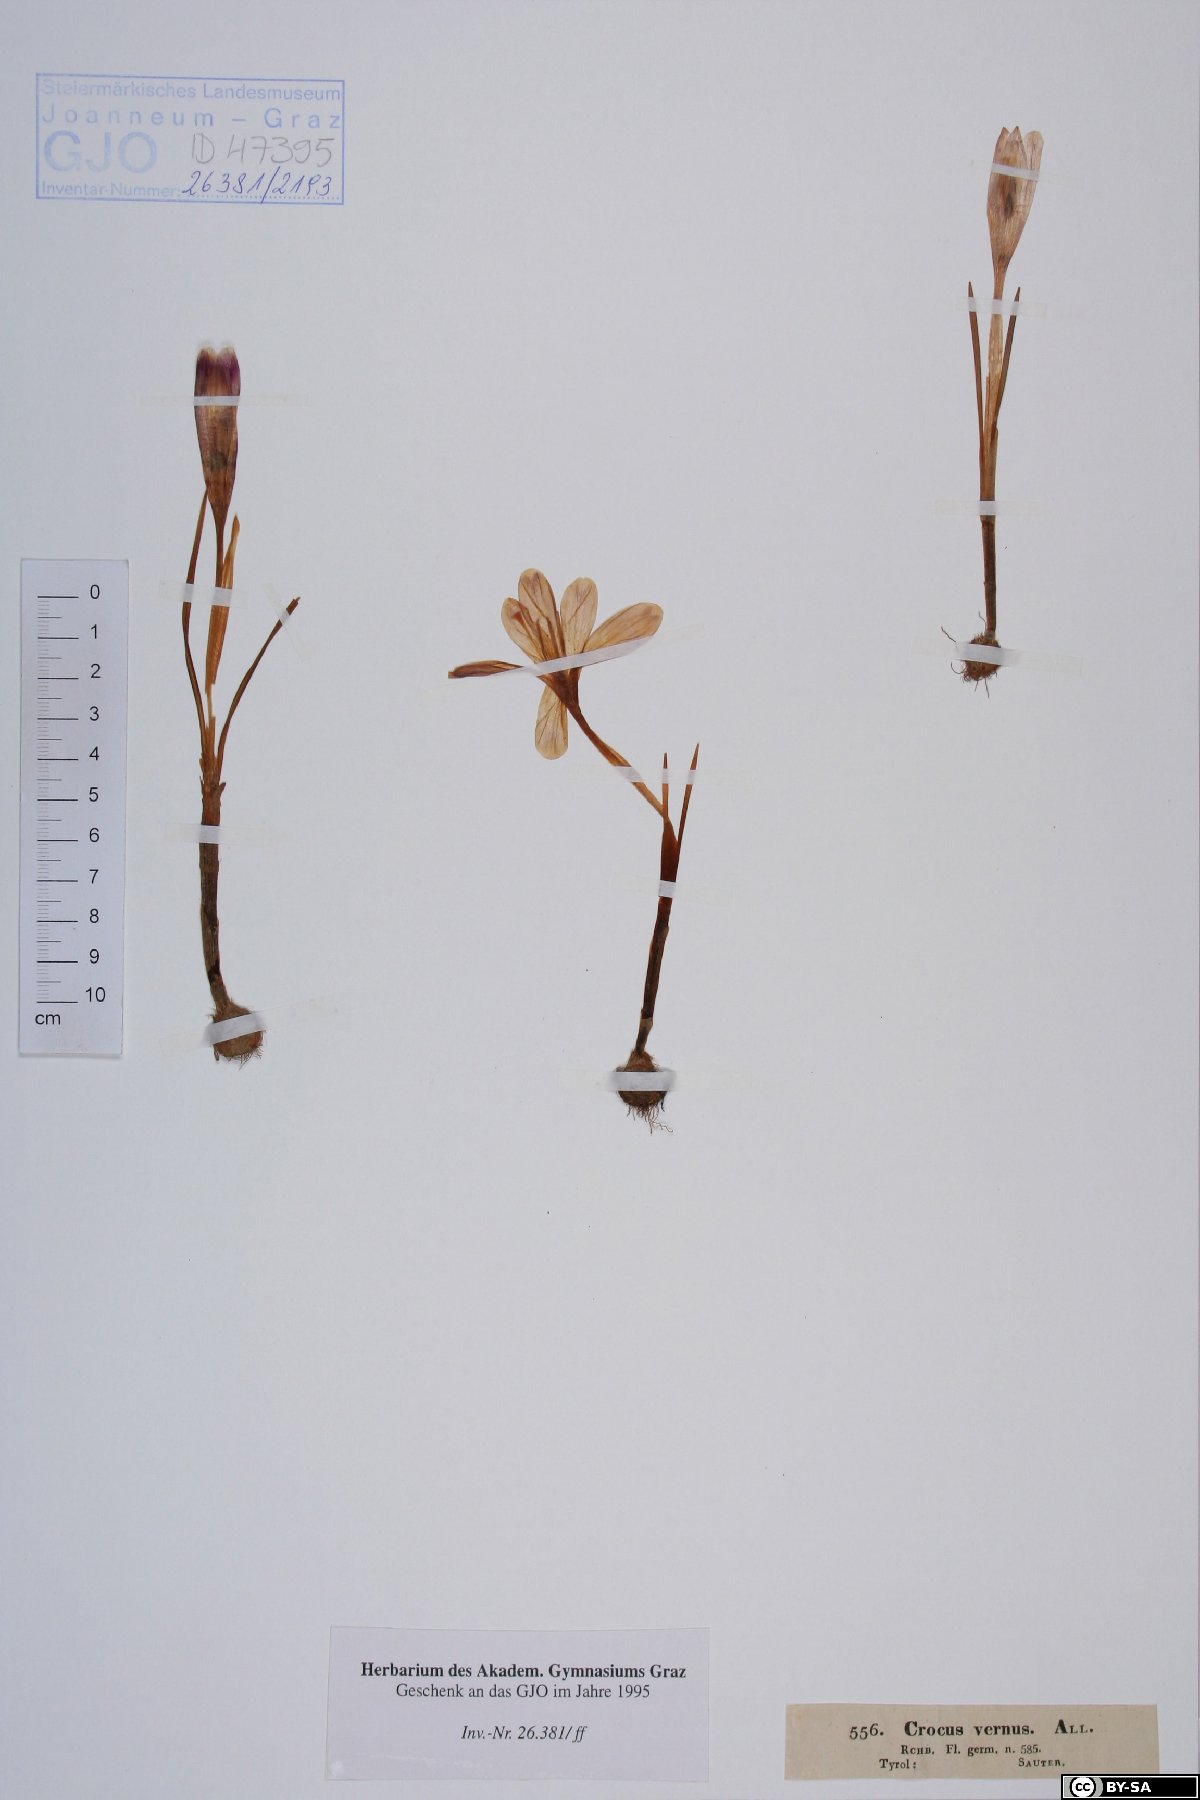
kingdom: Plantae
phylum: Tracheophyta
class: Liliopsida
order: Asparagales
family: Iridaceae
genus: Crocus
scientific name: Crocus vernus
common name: Spring crocus
